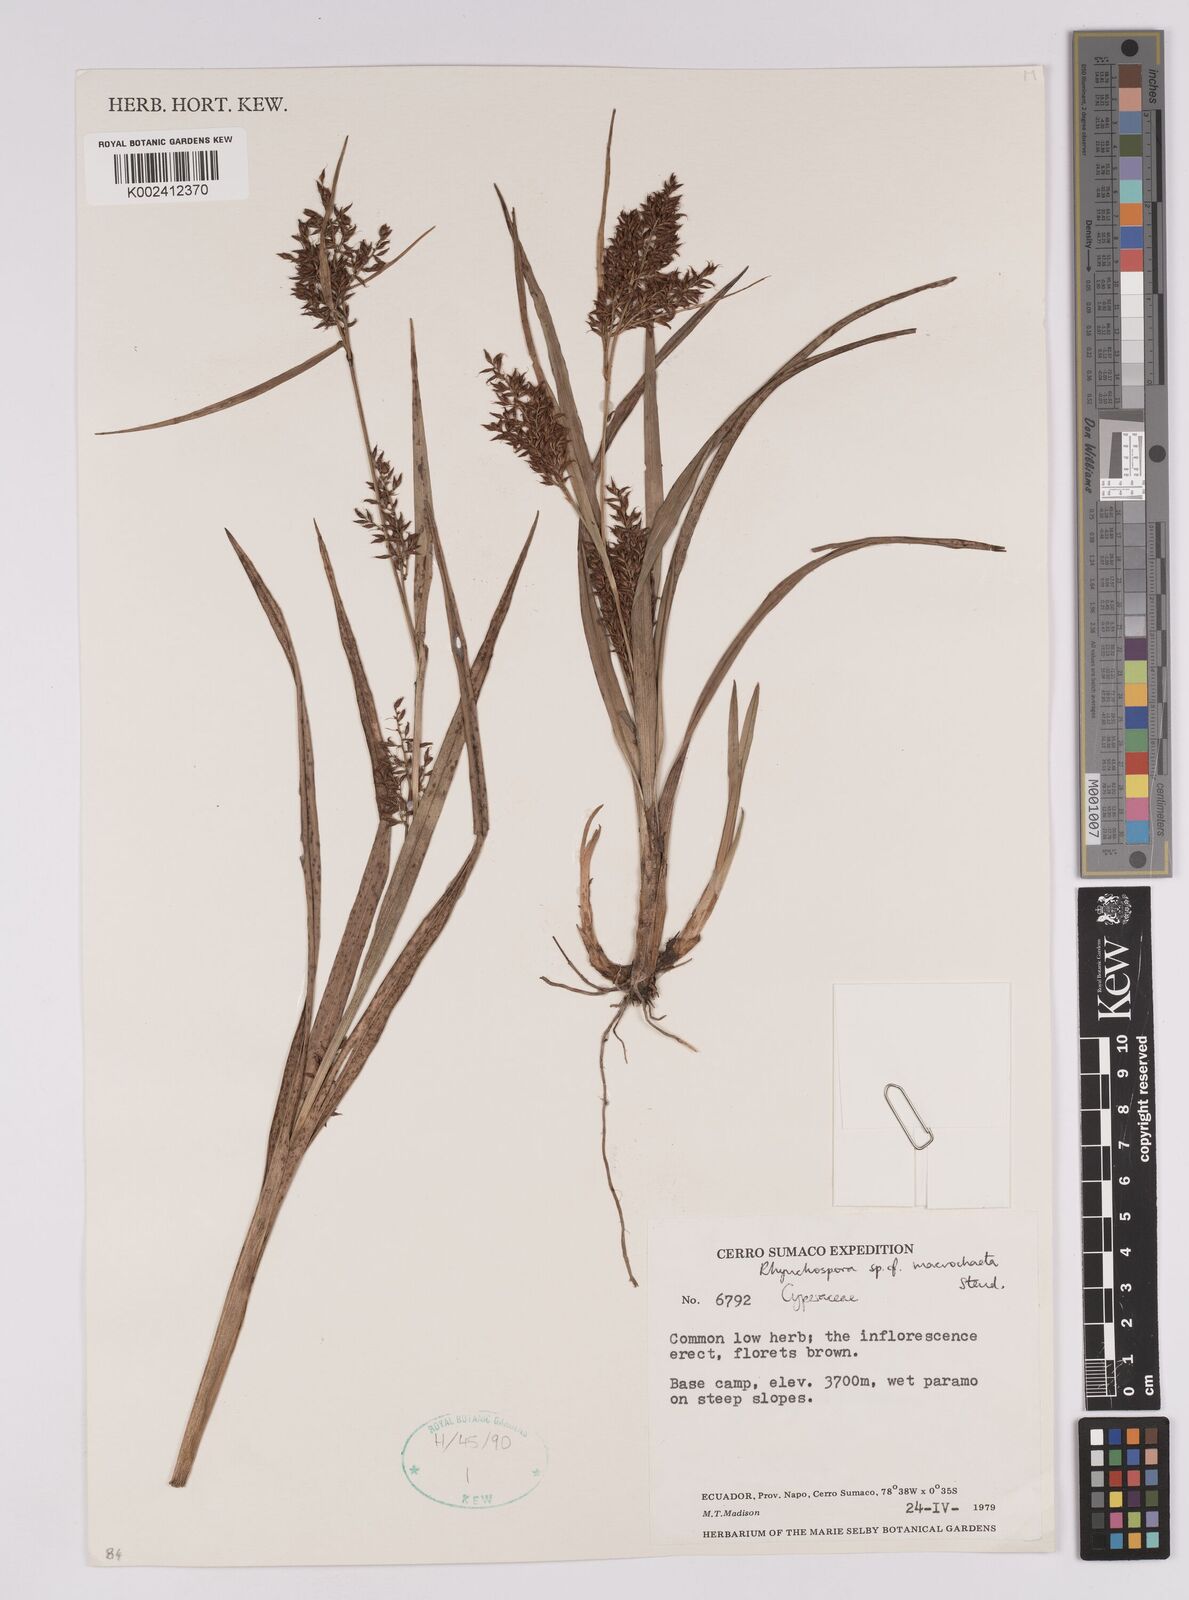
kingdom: Plantae
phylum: Tracheophyta
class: Liliopsida
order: Poales
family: Cyperaceae
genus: Rhynchospora
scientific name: Rhynchospora macrochaeta
